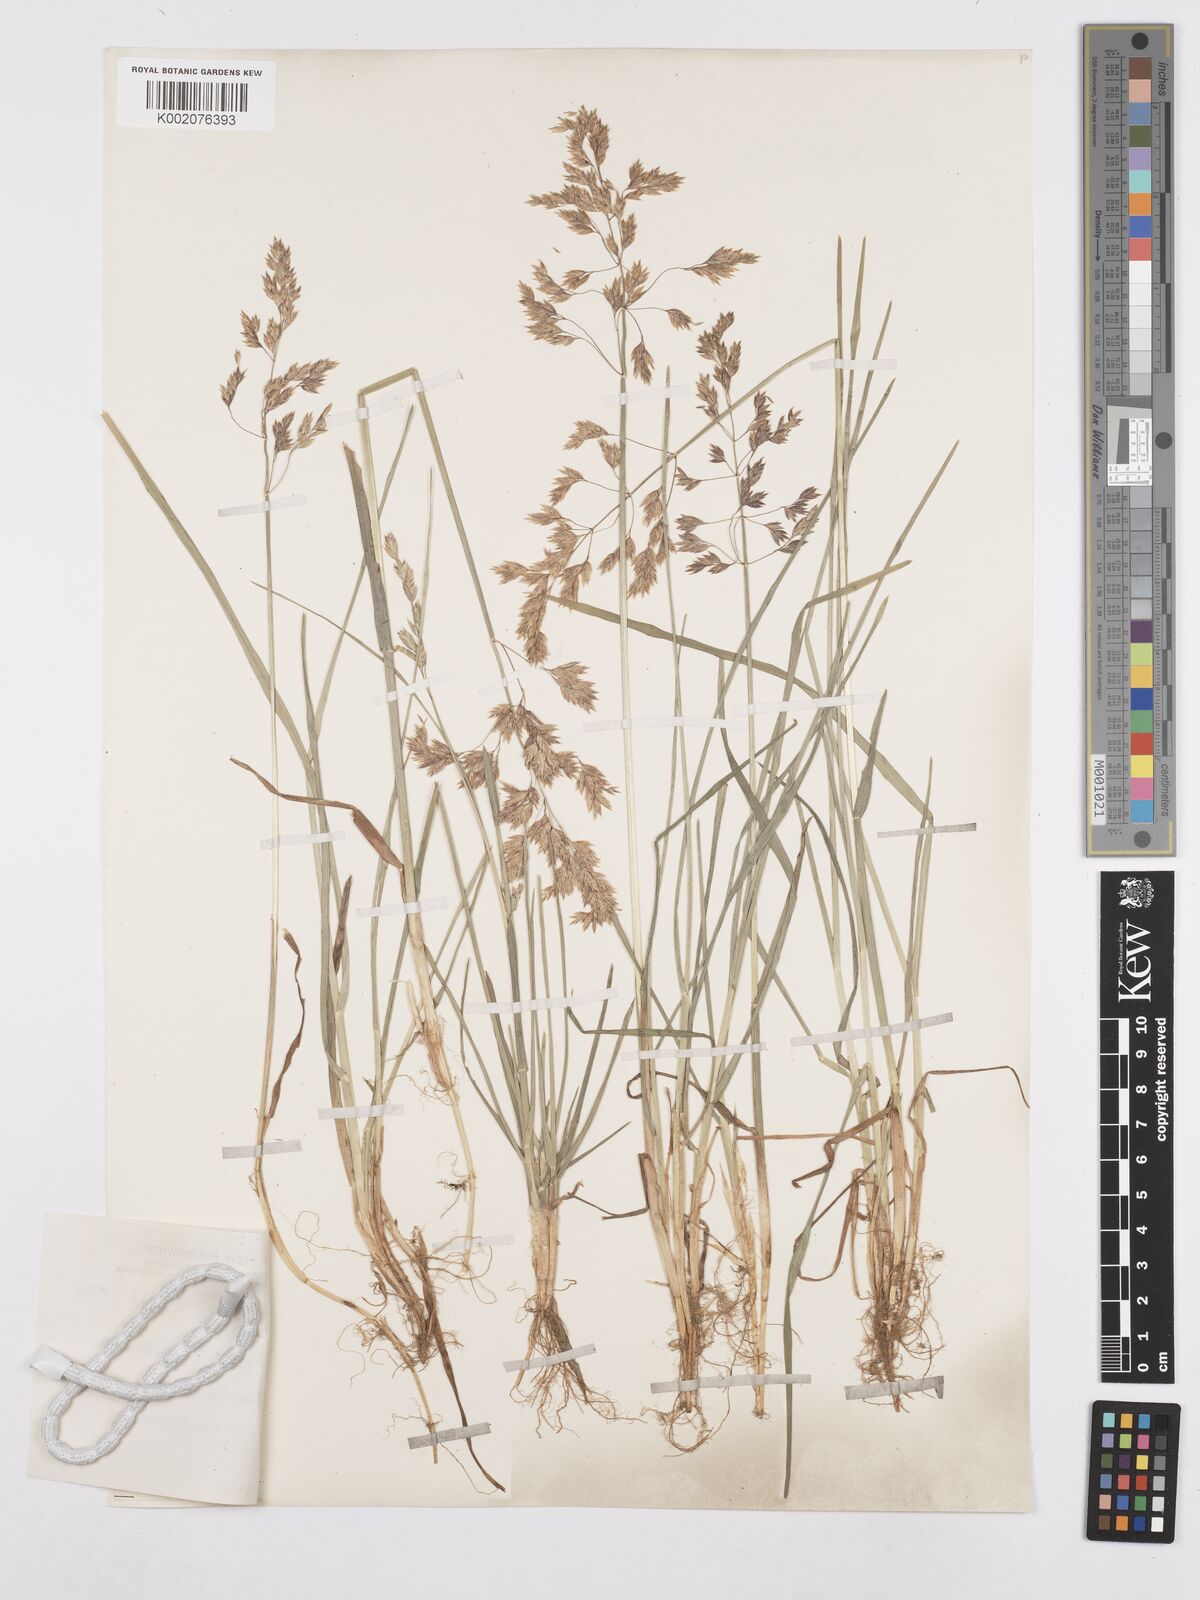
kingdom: Plantae
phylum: Tracheophyta
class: Liliopsida
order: Poales
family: Poaceae
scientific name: Poaceae
